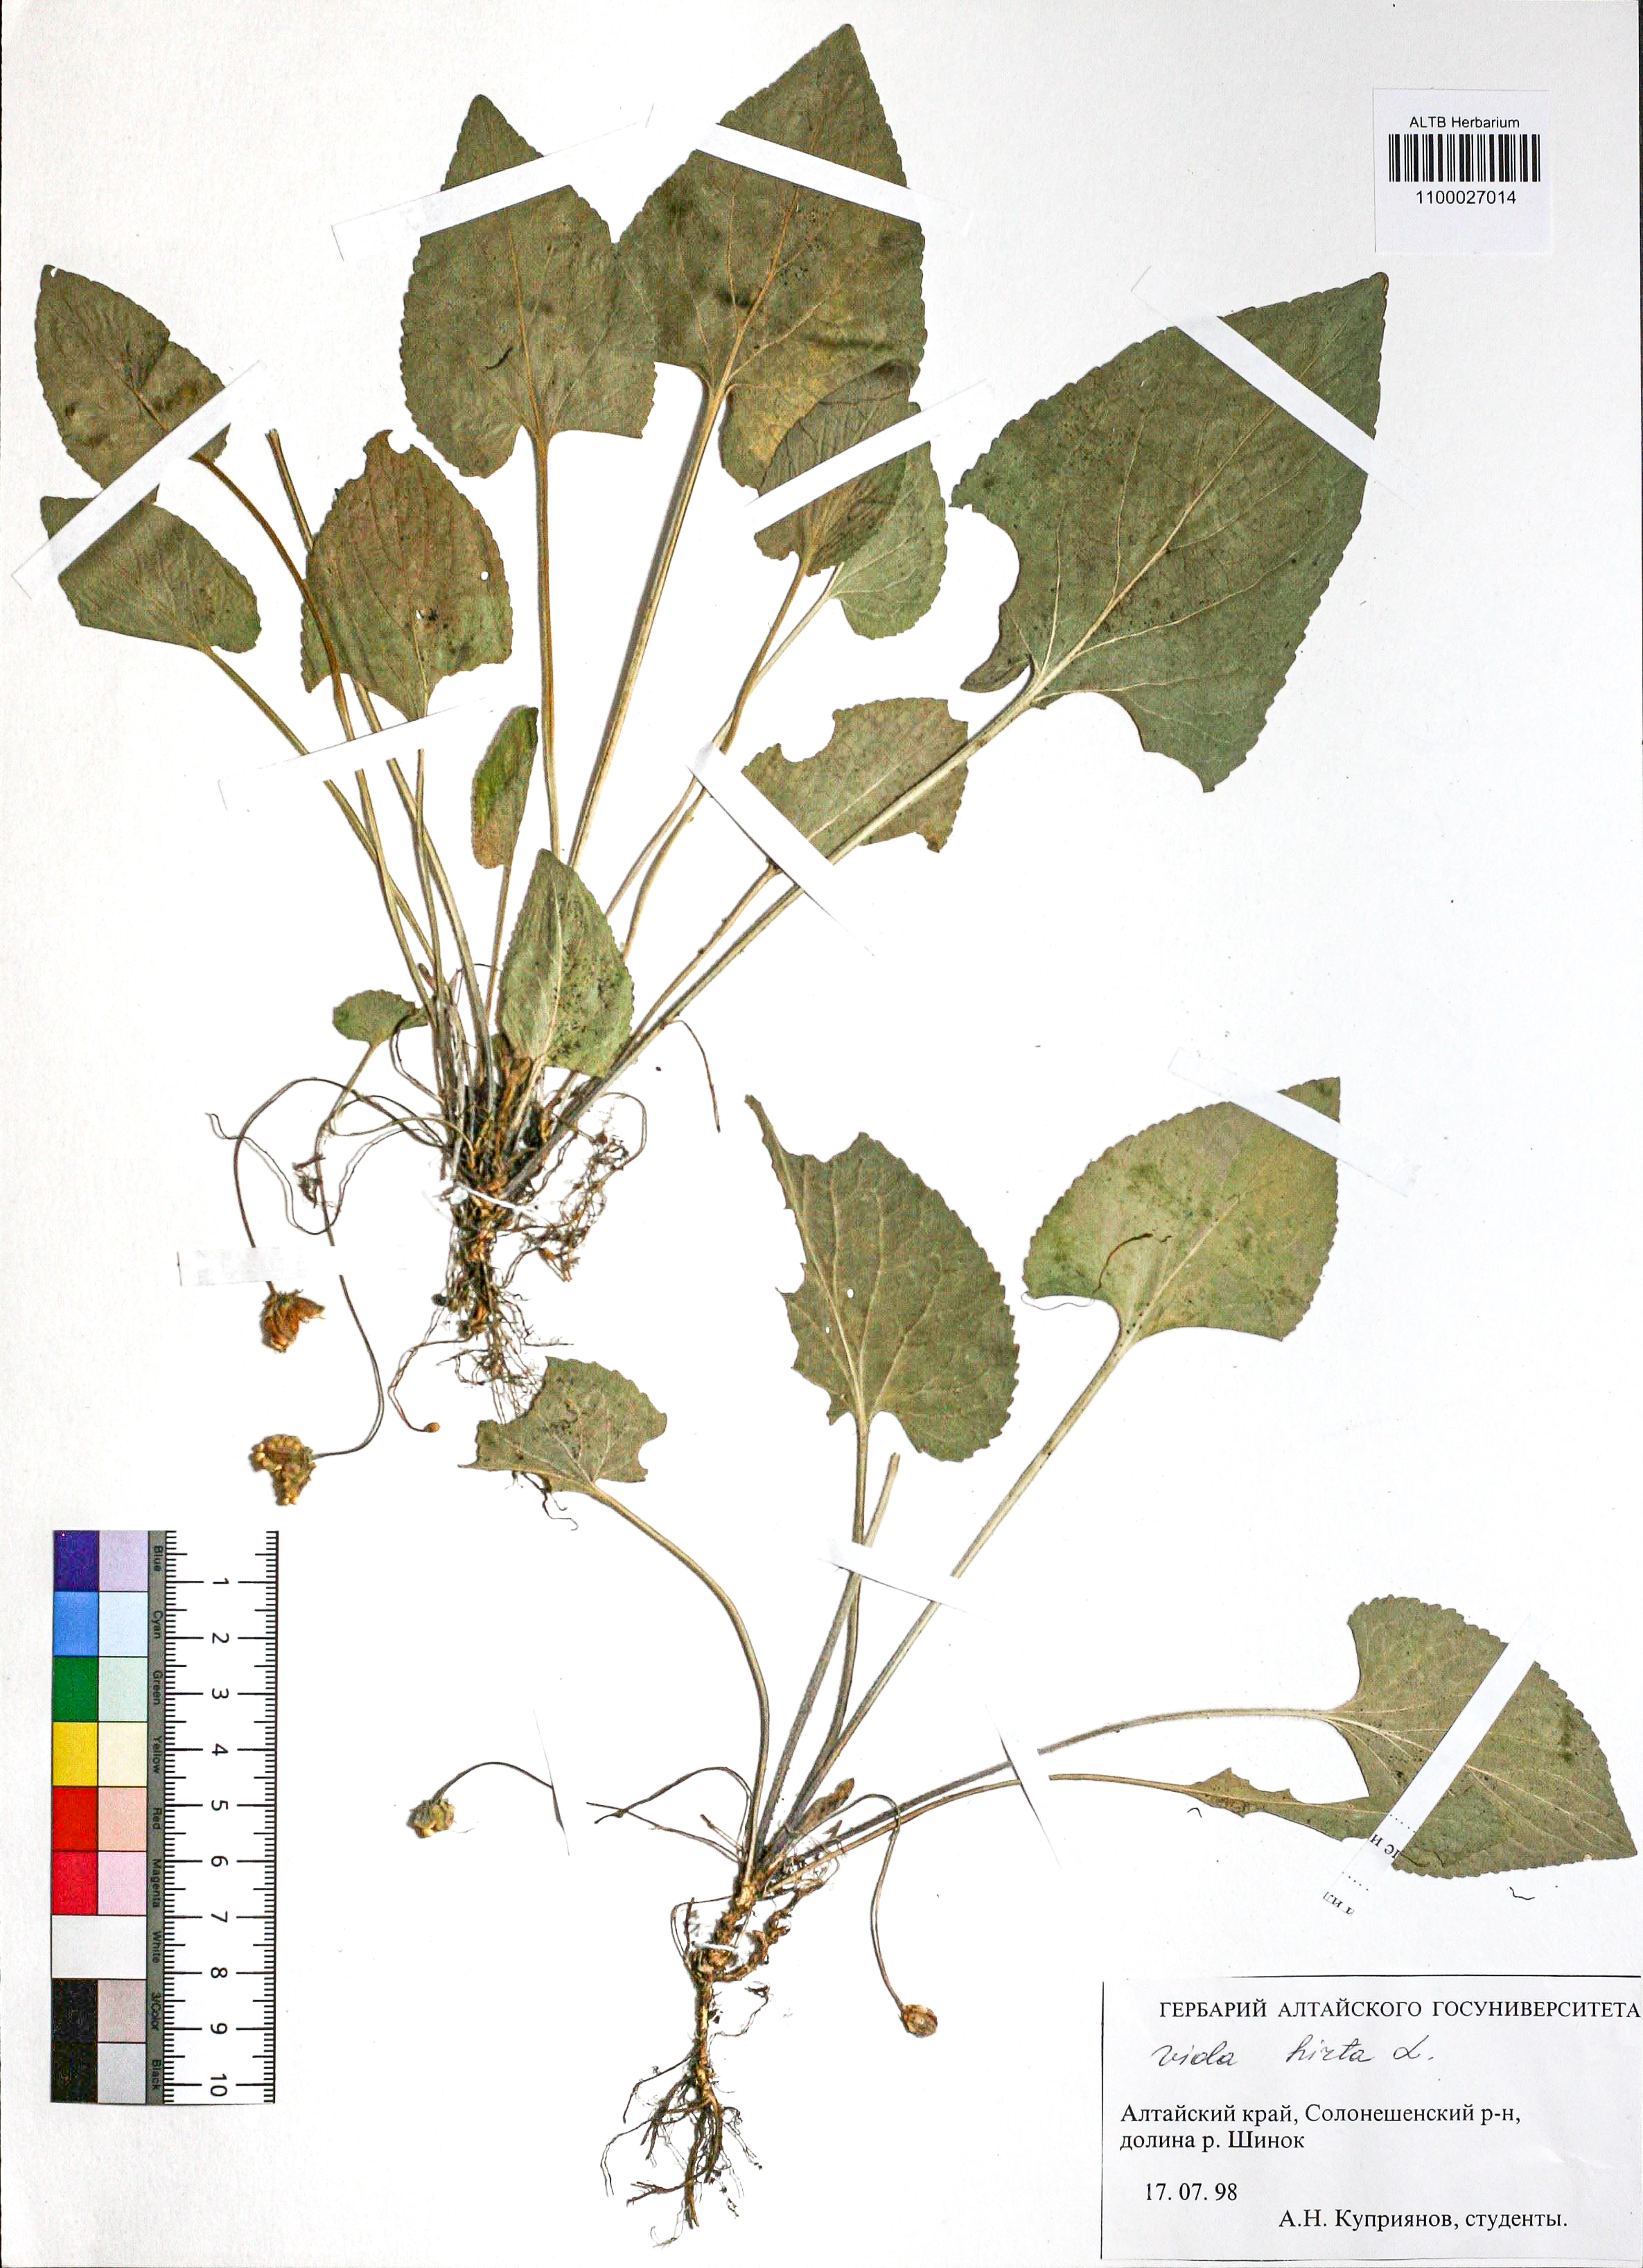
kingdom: Plantae
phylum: Tracheophyta
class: Magnoliopsida
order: Malpighiales
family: Violaceae
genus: Viola
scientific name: Viola hirta
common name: Hairy violet
